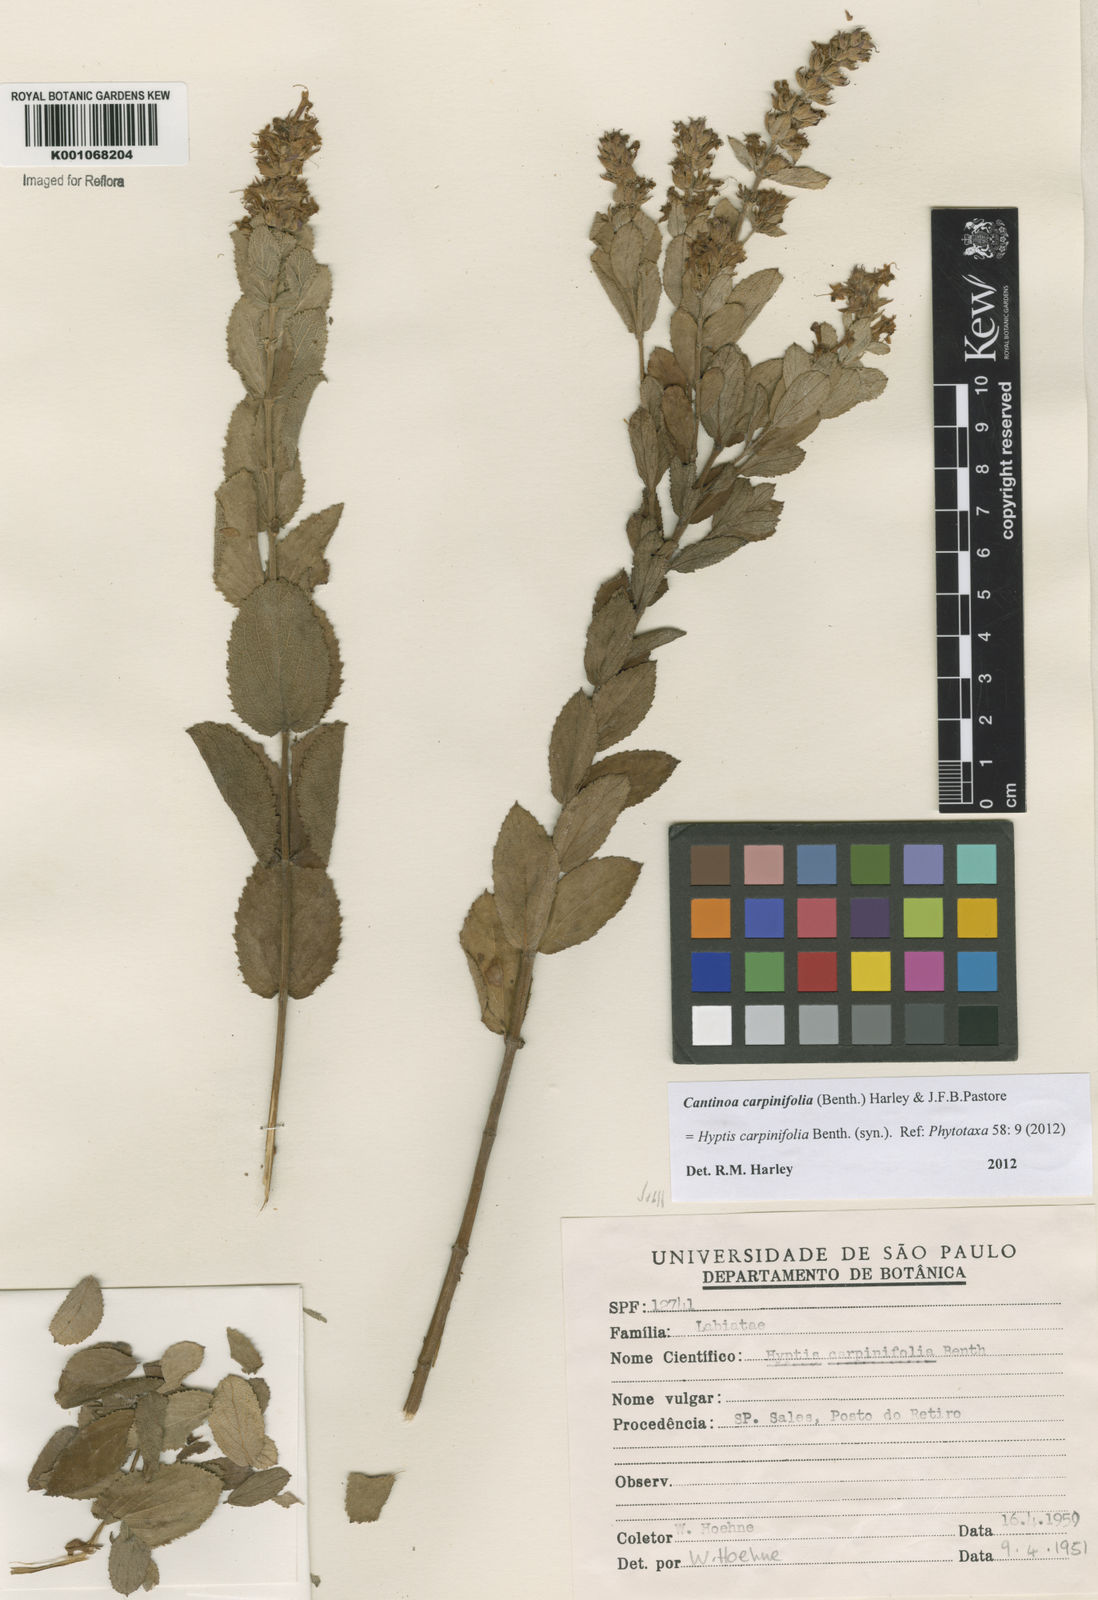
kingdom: Plantae
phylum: Tracheophyta
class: Magnoliopsida
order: Lamiales
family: Lamiaceae
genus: Cantinoa
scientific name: Cantinoa carpinifolia
